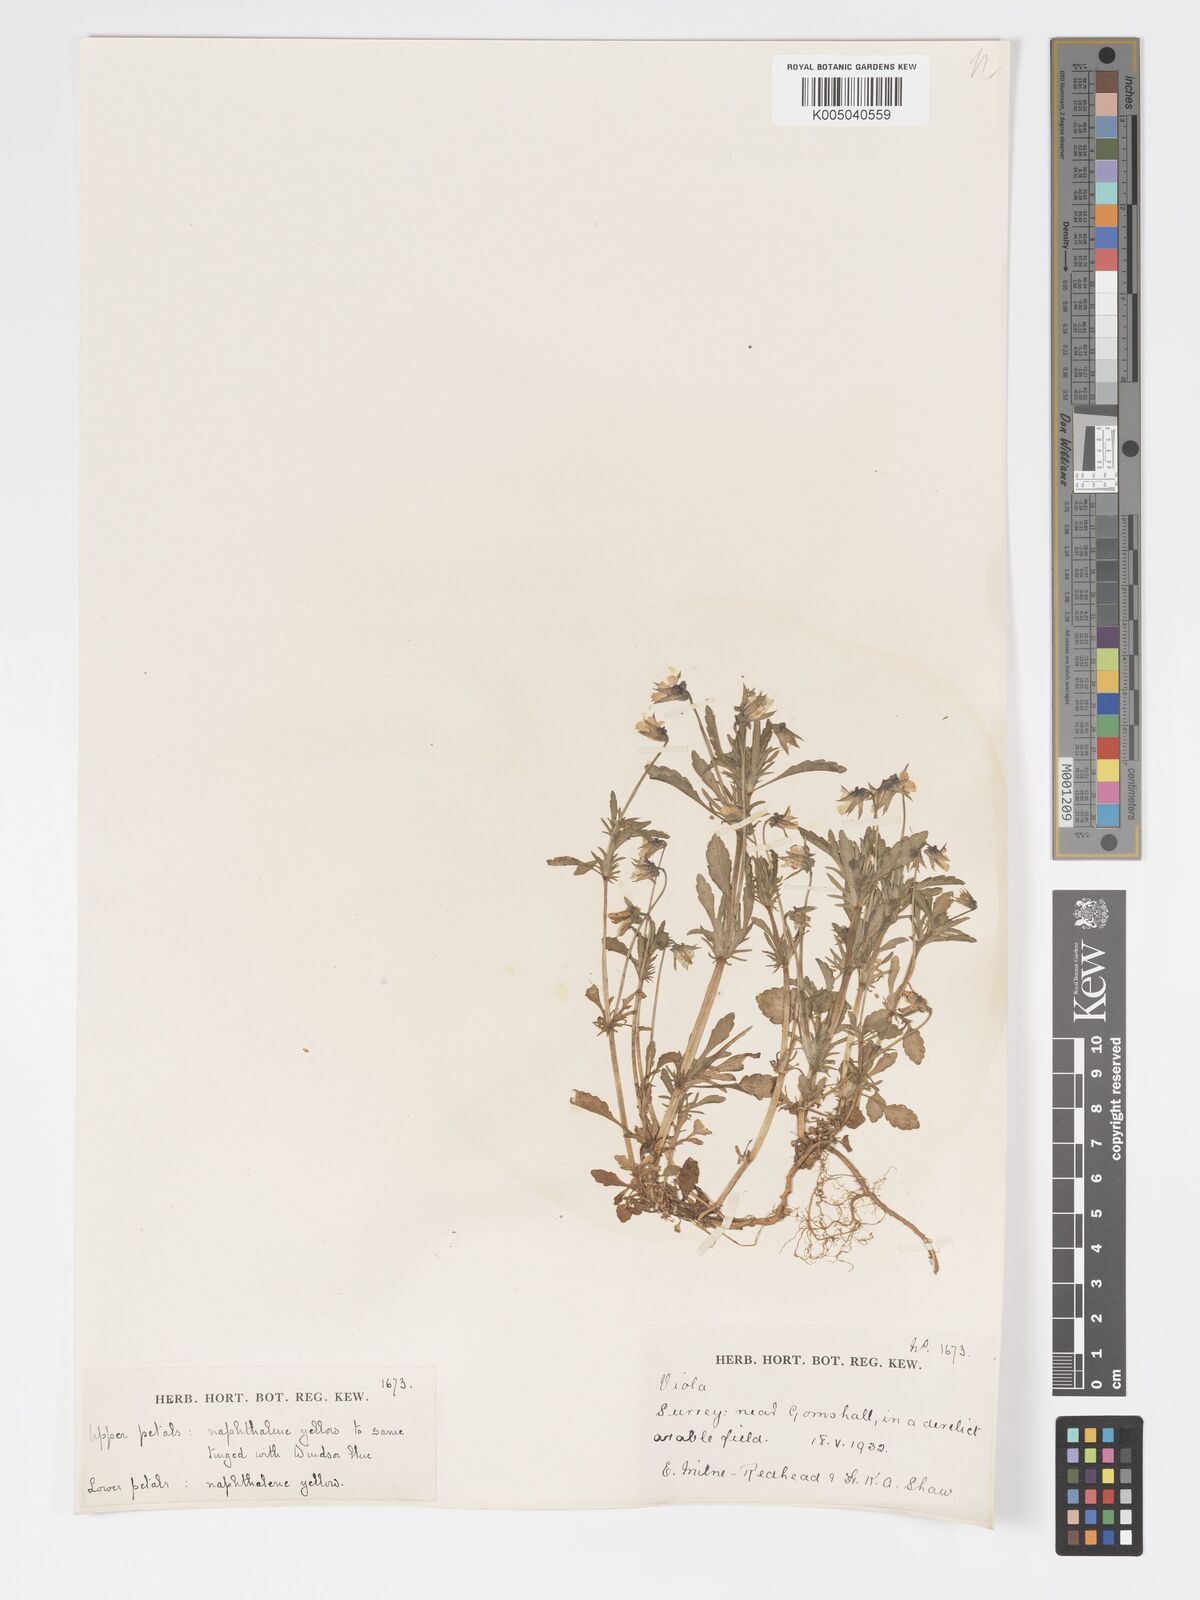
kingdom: Plantae
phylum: Tracheophyta
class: Magnoliopsida
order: Malpighiales
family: Violaceae
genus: Viola
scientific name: Viola
